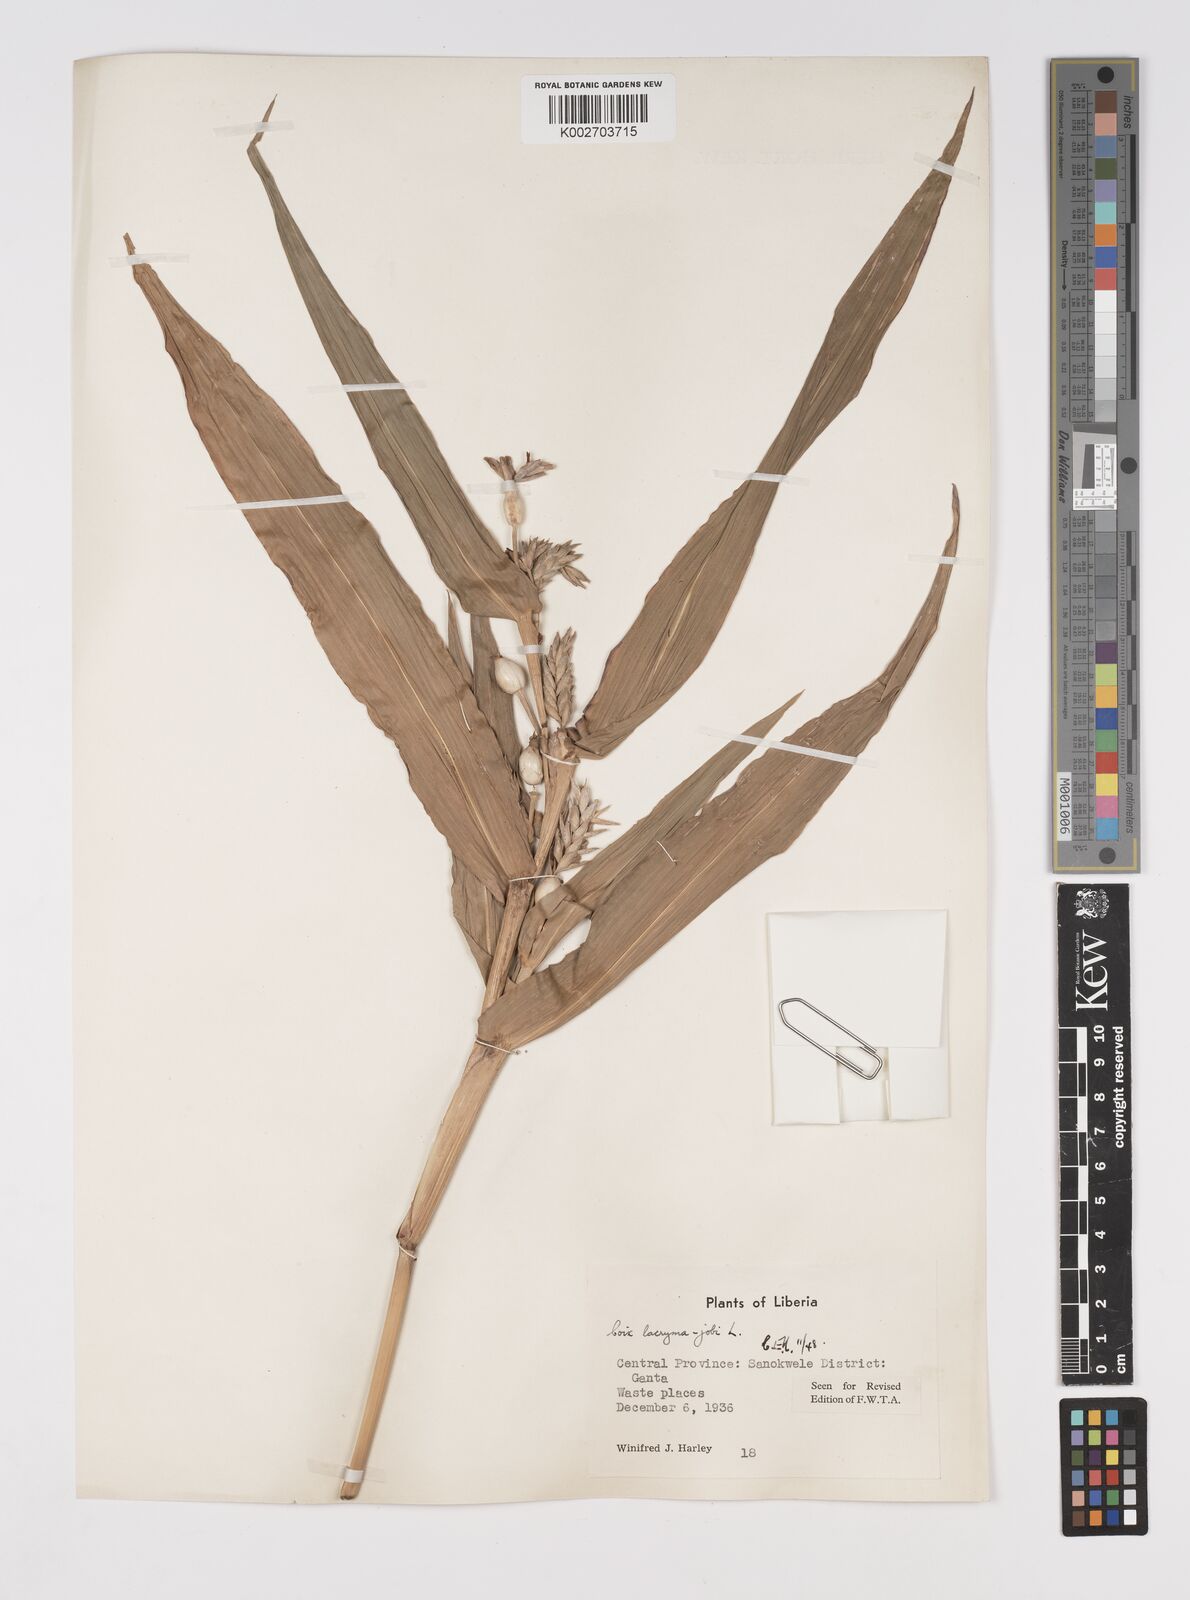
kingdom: Plantae
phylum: Tracheophyta
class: Liliopsida
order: Poales
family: Poaceae
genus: Coix
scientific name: Coix lacryma-jobi
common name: Job's tears
